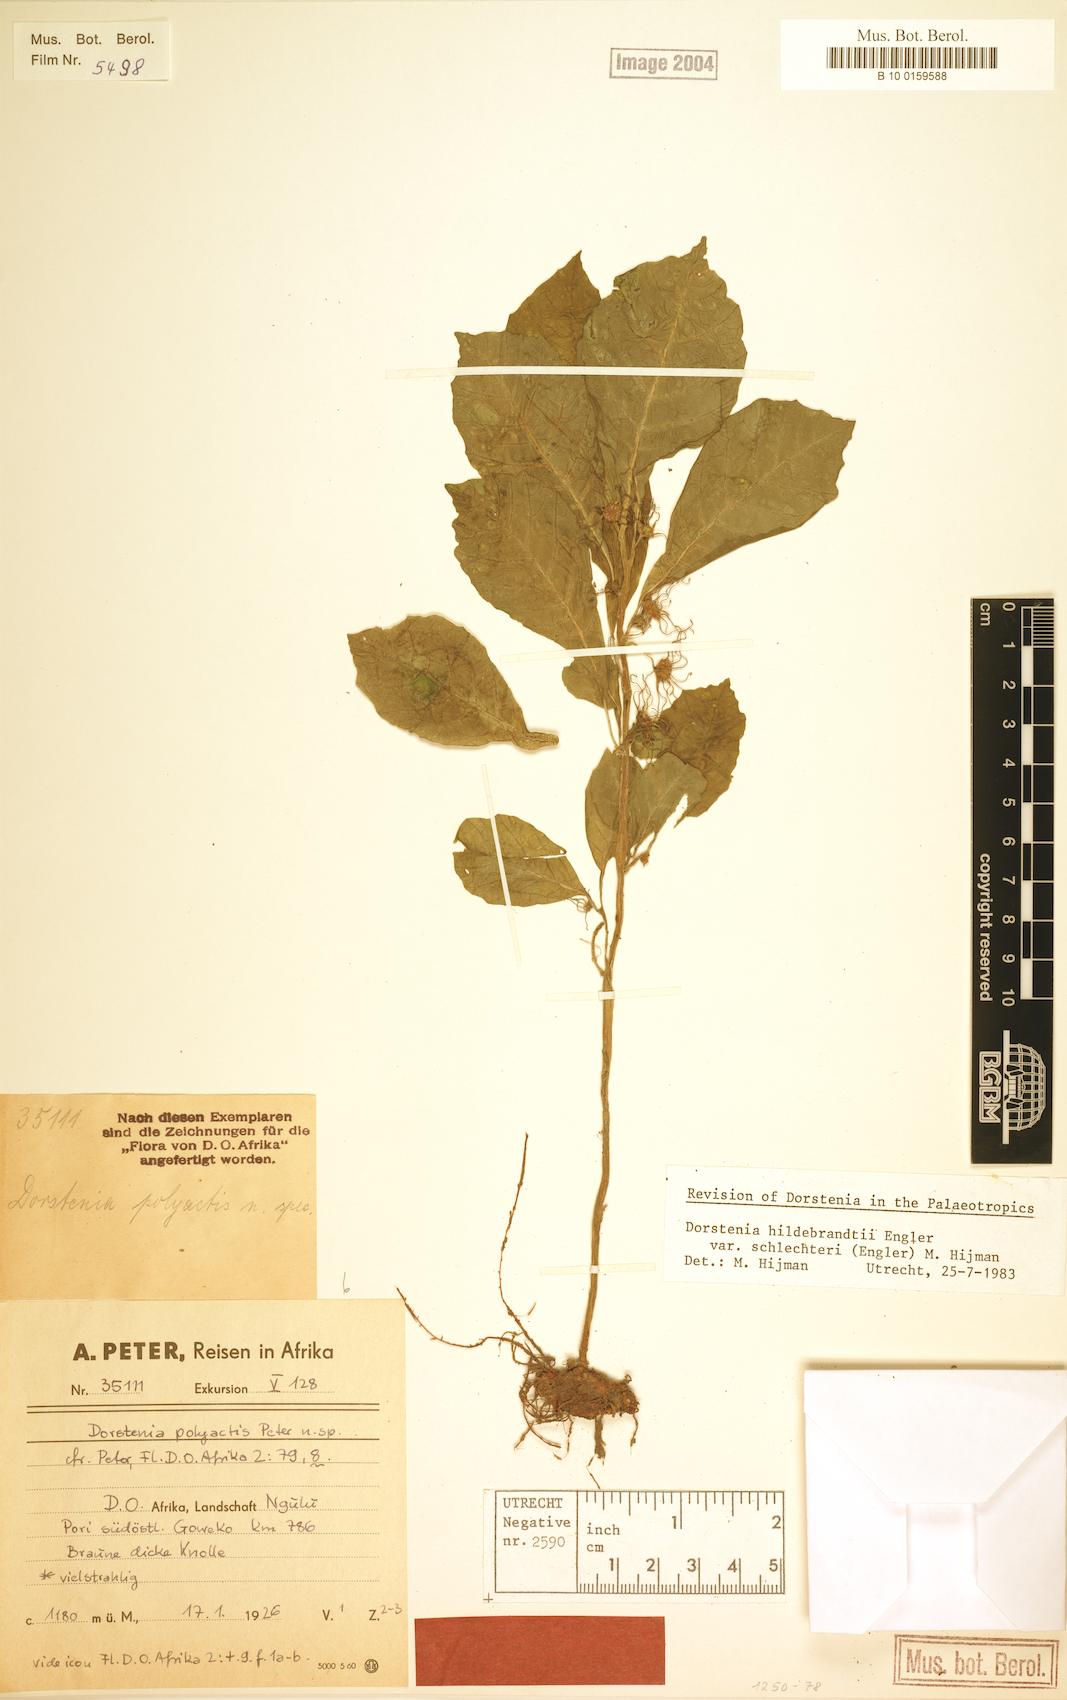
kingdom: Plantae
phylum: Tracheophyta
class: Magnoliopsida
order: Rosales
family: Moraceae
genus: Dorstenia
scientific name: Dorstenia hildebrandtii
